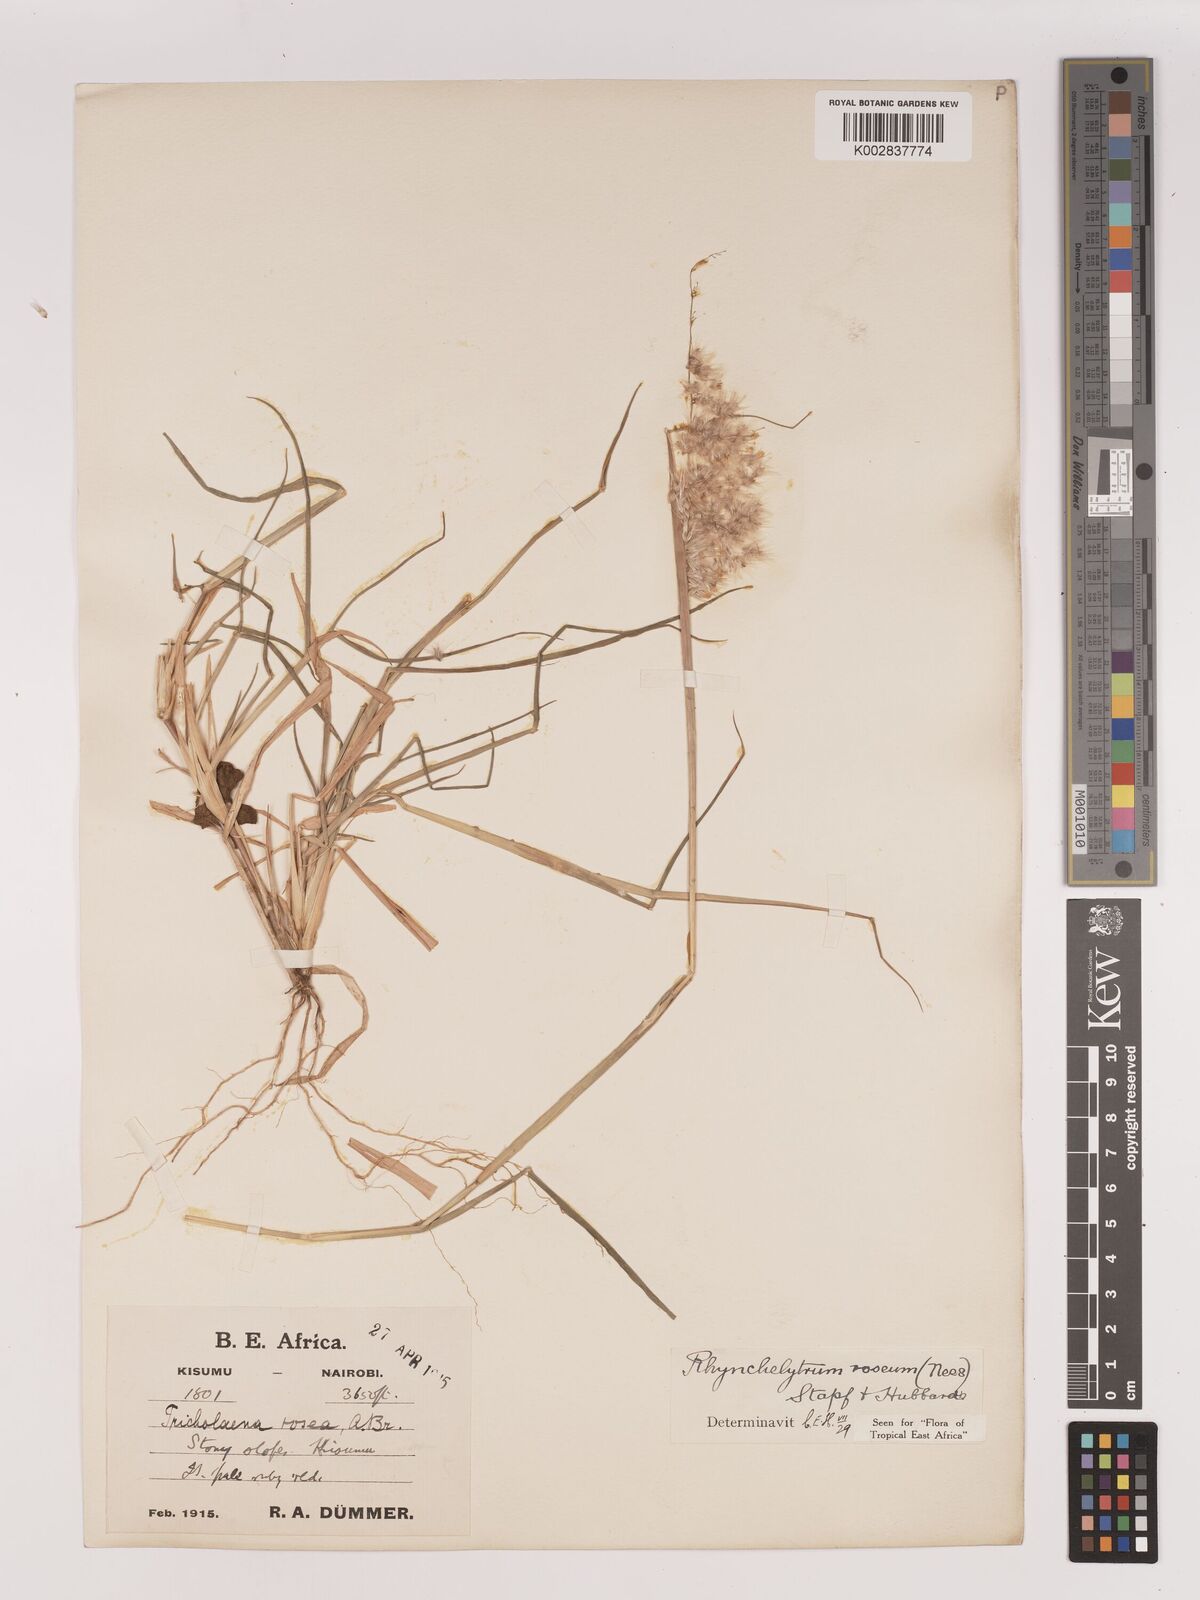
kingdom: Plantae
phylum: Tracheophyta
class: Liliopsida
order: Poales
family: Poaceae
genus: Melinis
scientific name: Melinis repens
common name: Rose natal grass
